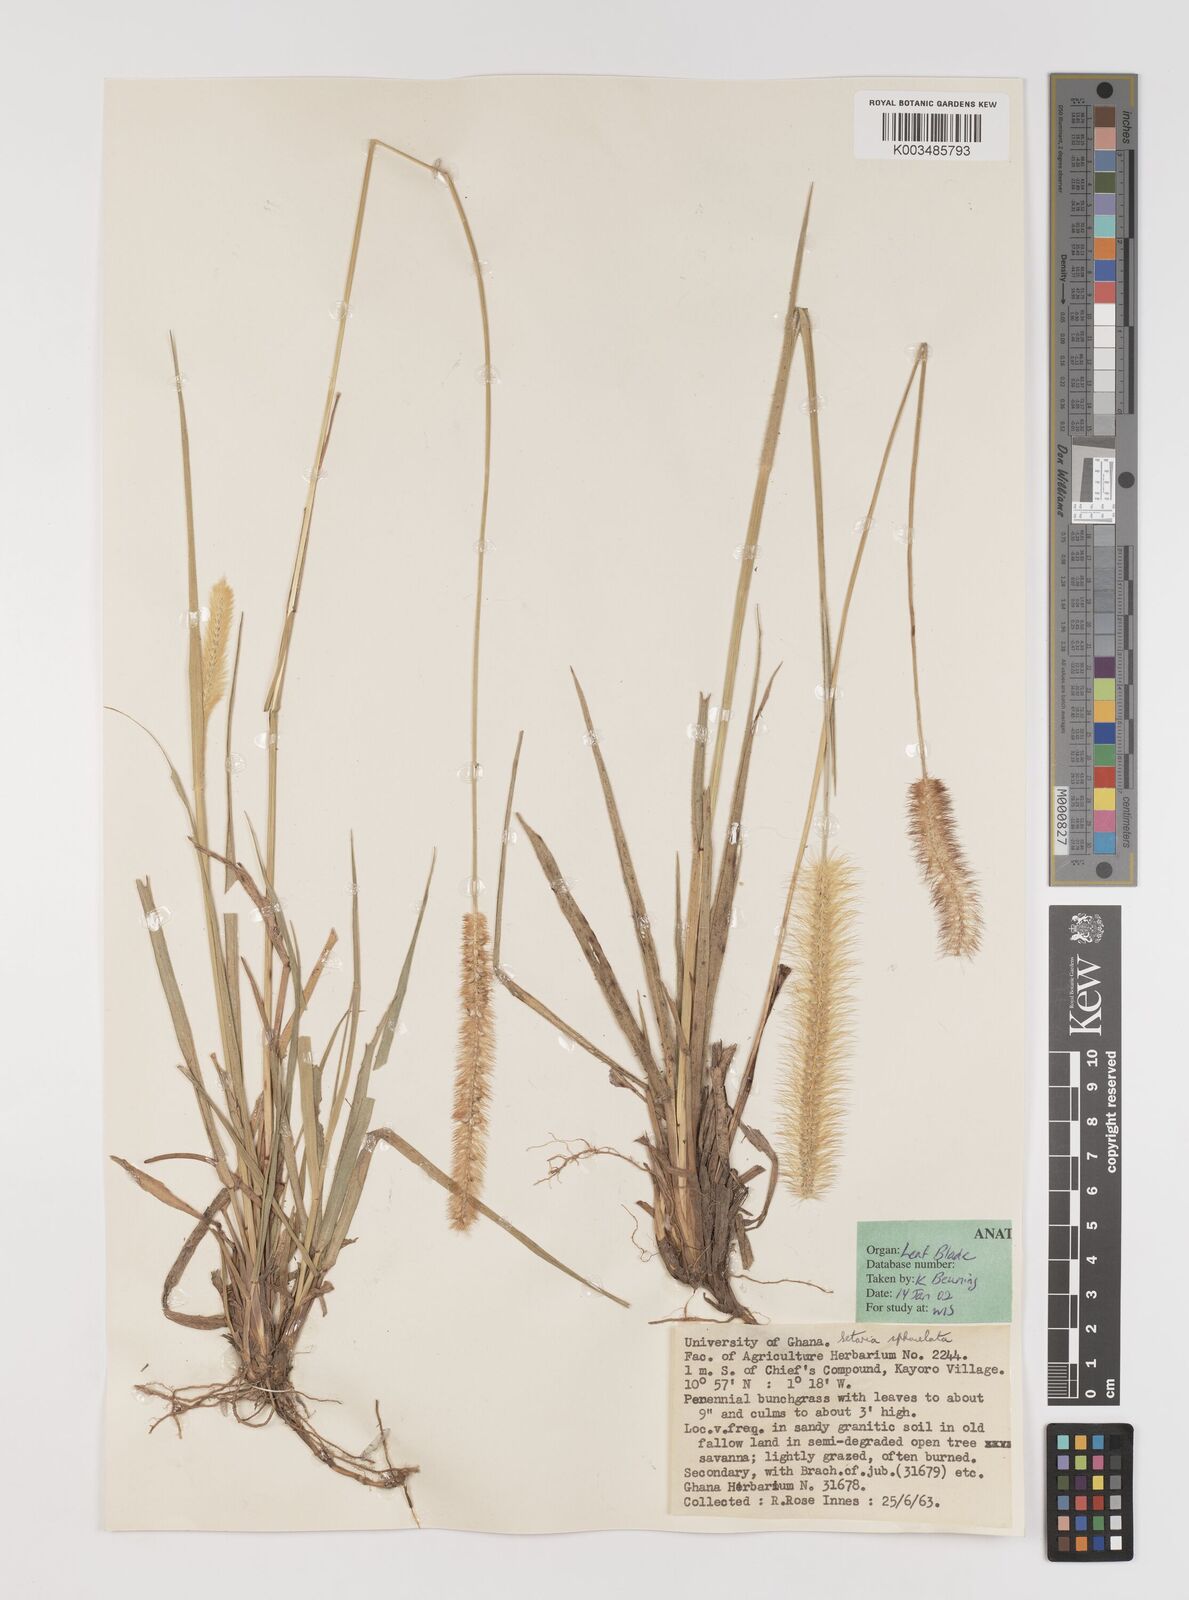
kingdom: Plantae
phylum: Tracheophyta
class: Liliopsida
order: Poales
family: Poaceae
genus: Setaria
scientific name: Setaria sphacelata
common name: African bristlegrass
